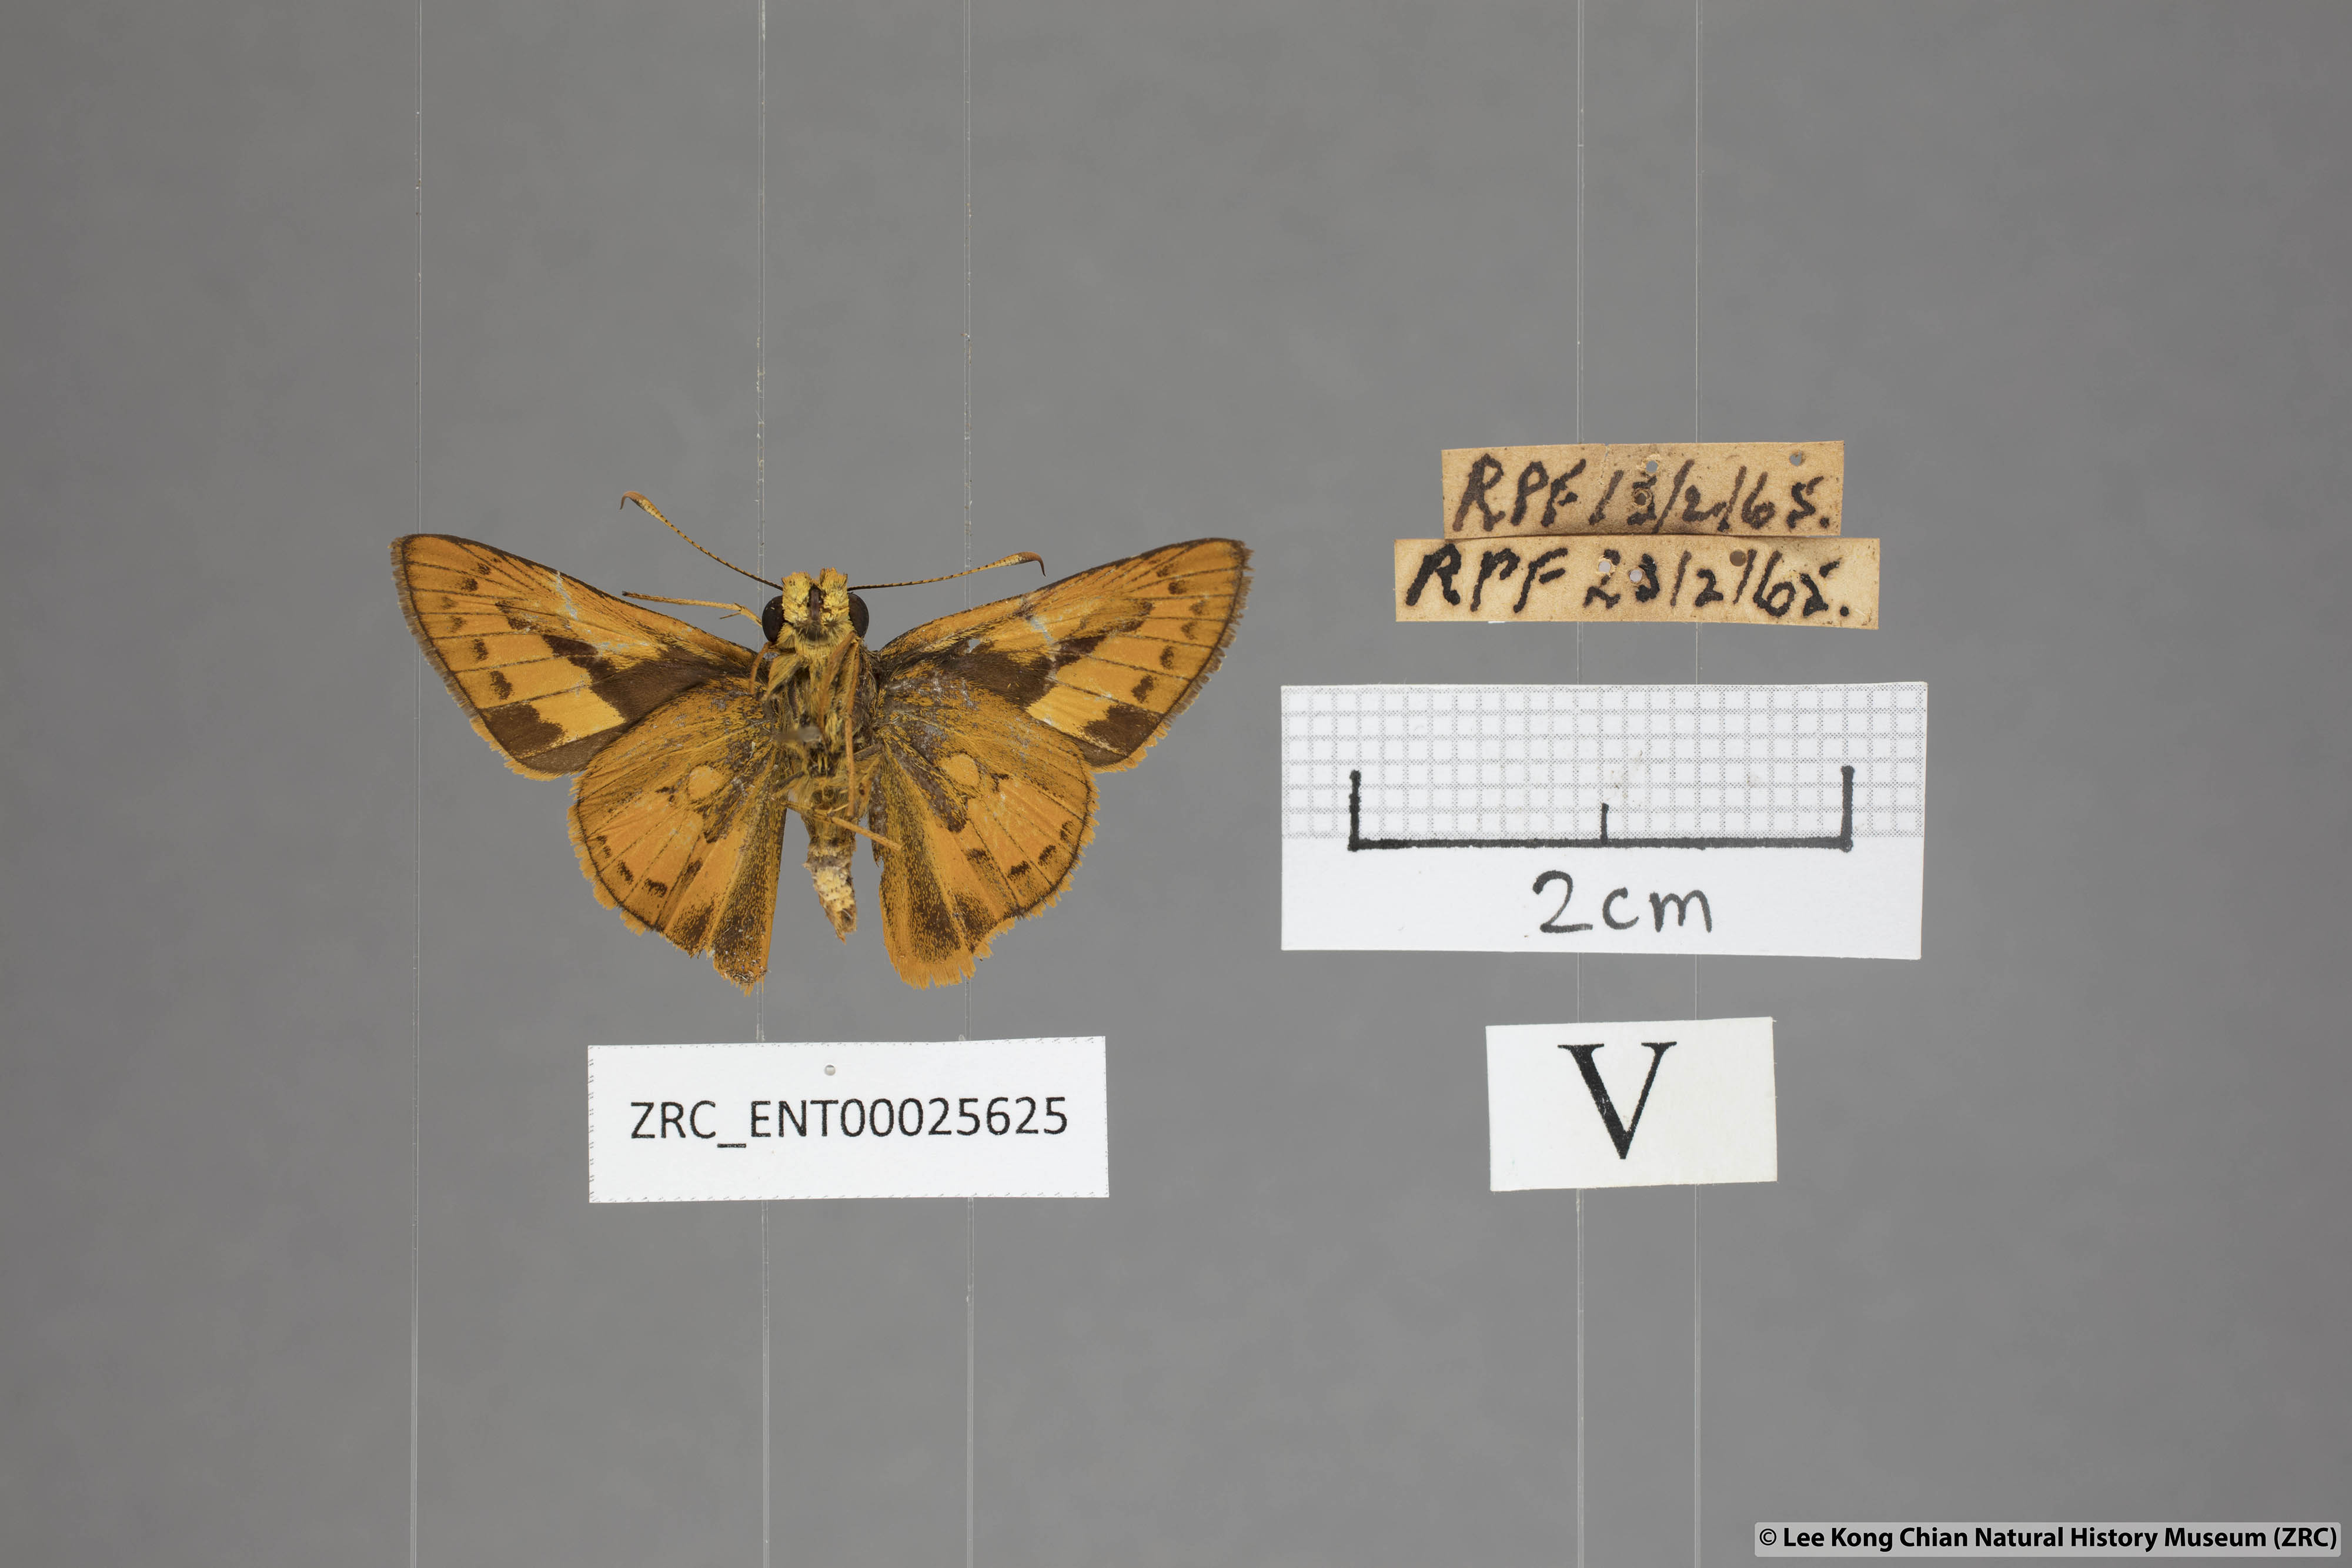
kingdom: Animalia
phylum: Arthropoda
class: Insecta
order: Lepidoptera
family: Hesperiidae
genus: Telicota
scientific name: Telicota augias
